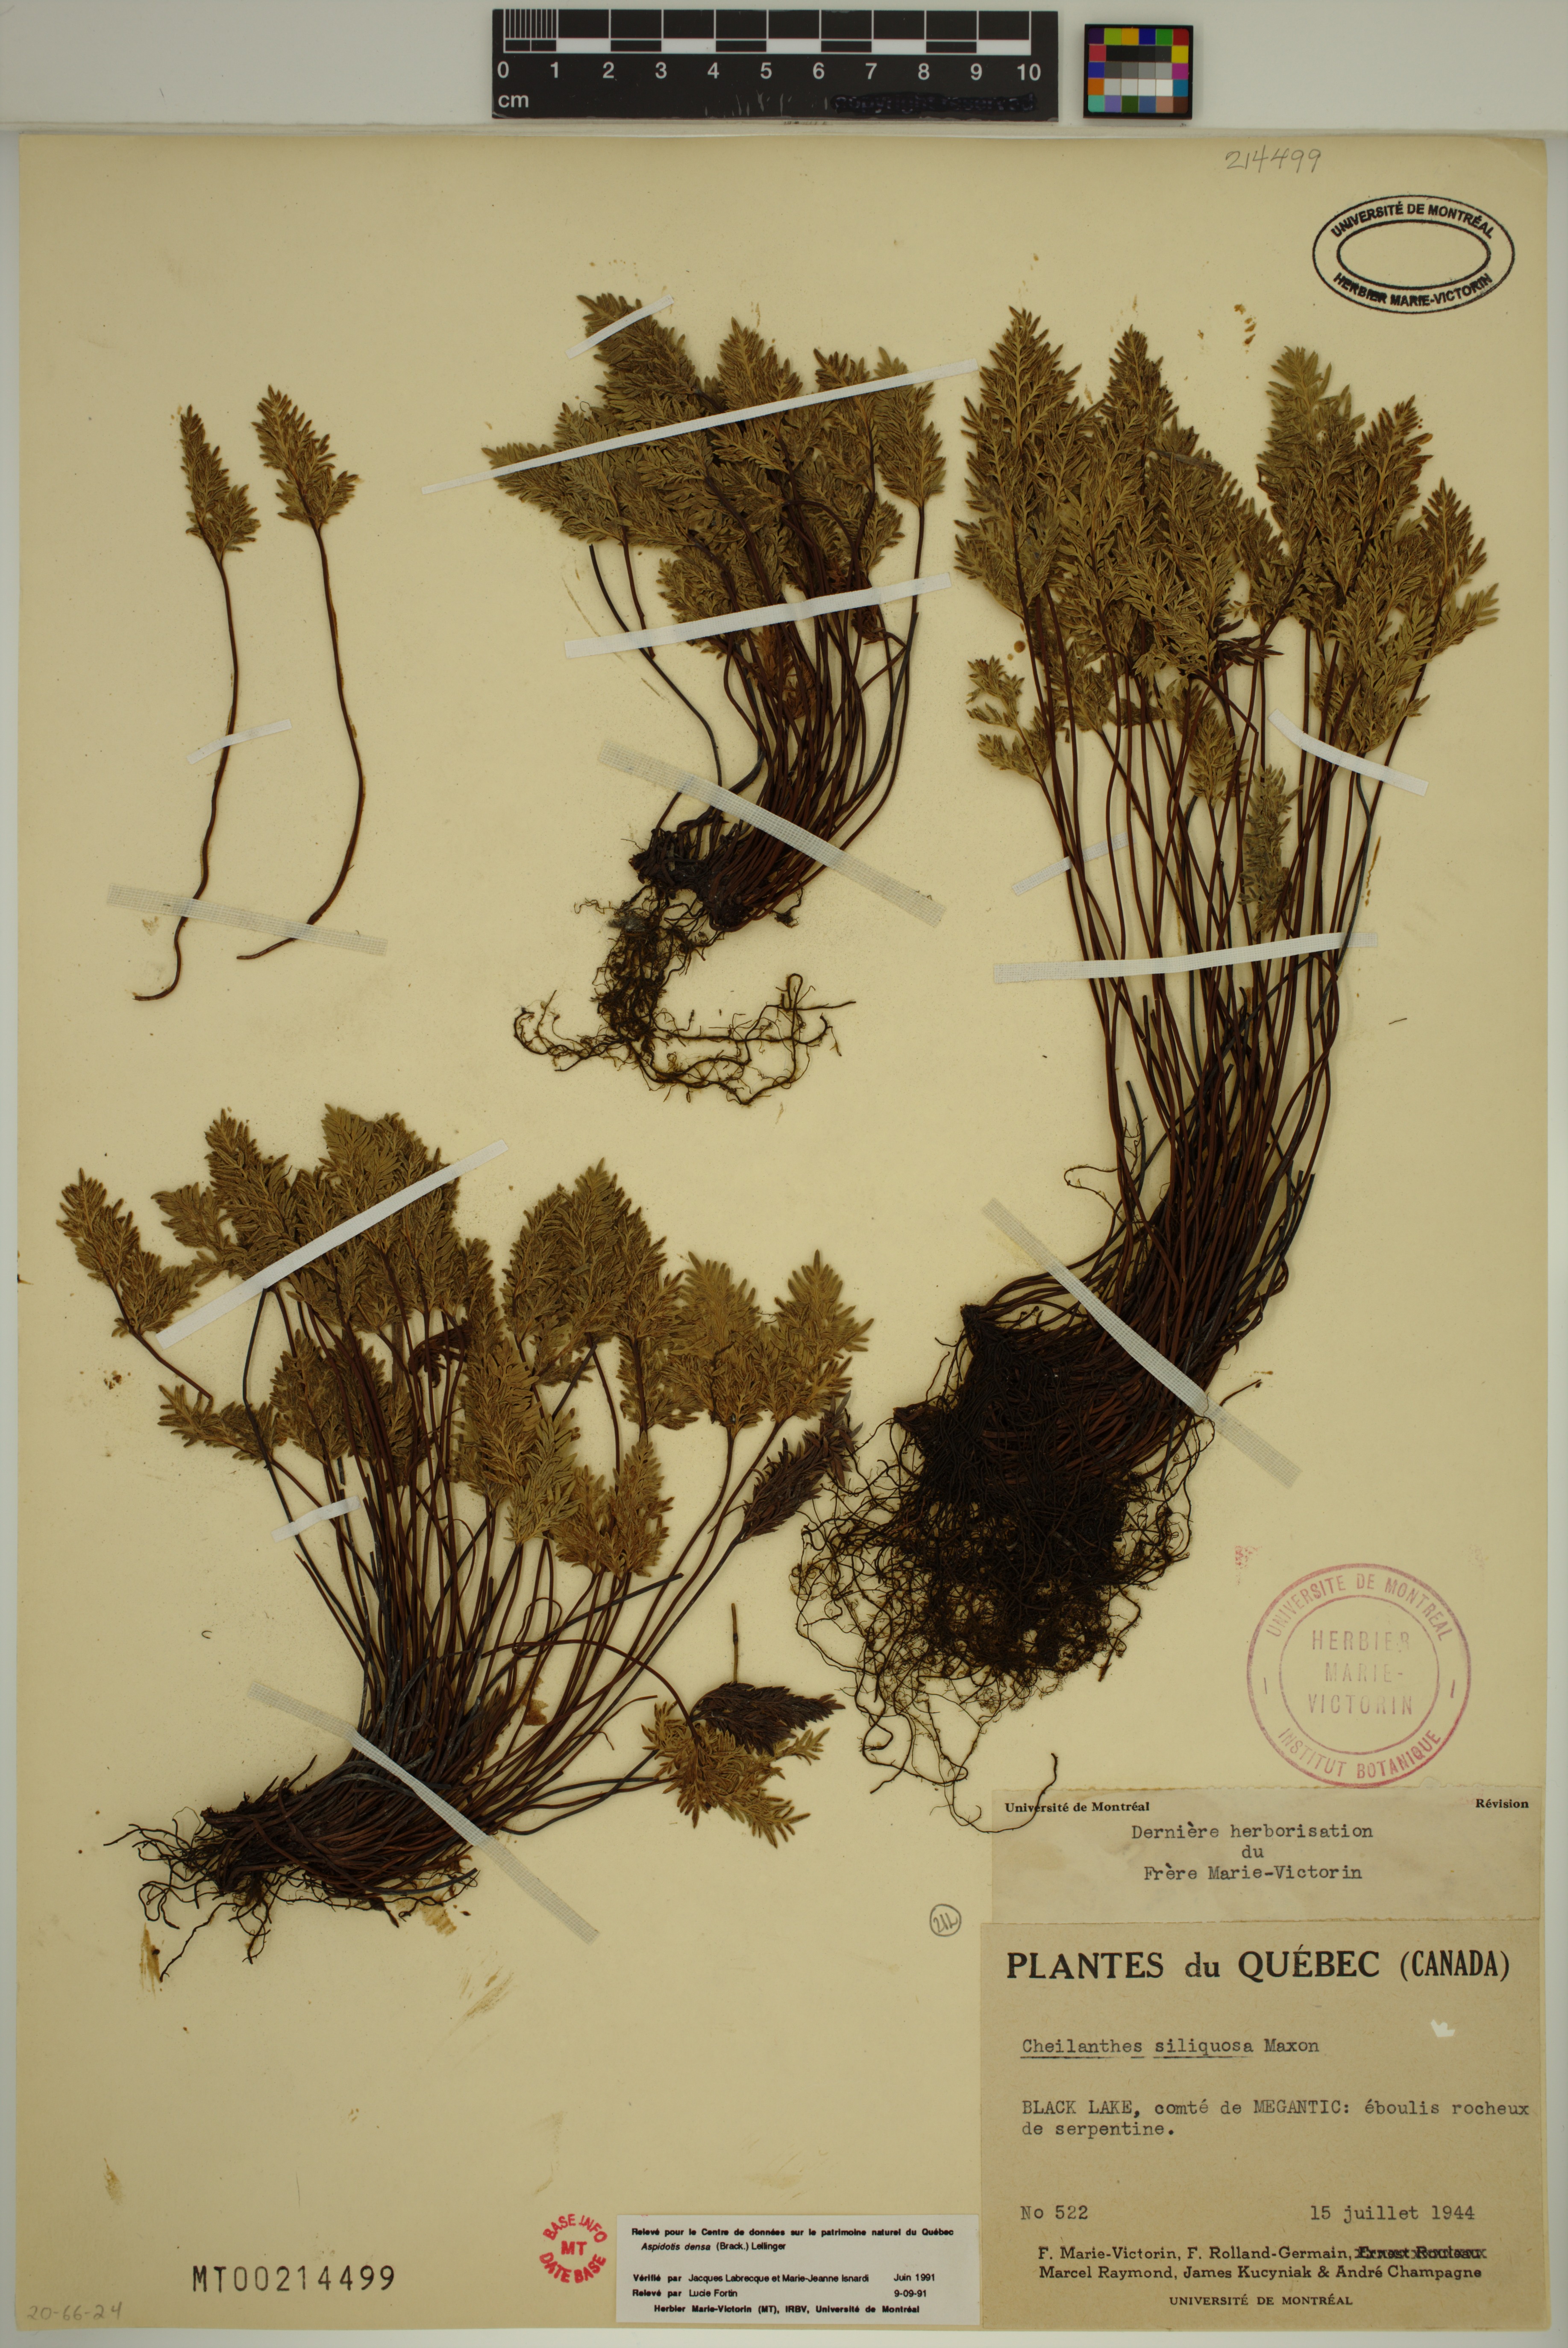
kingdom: Plantae
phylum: Tracheophyta
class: Polypodiopsida
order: Polypodiales
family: Pteridaceae
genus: Aspidotis
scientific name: Aspidotis densa
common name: Indian's dream
